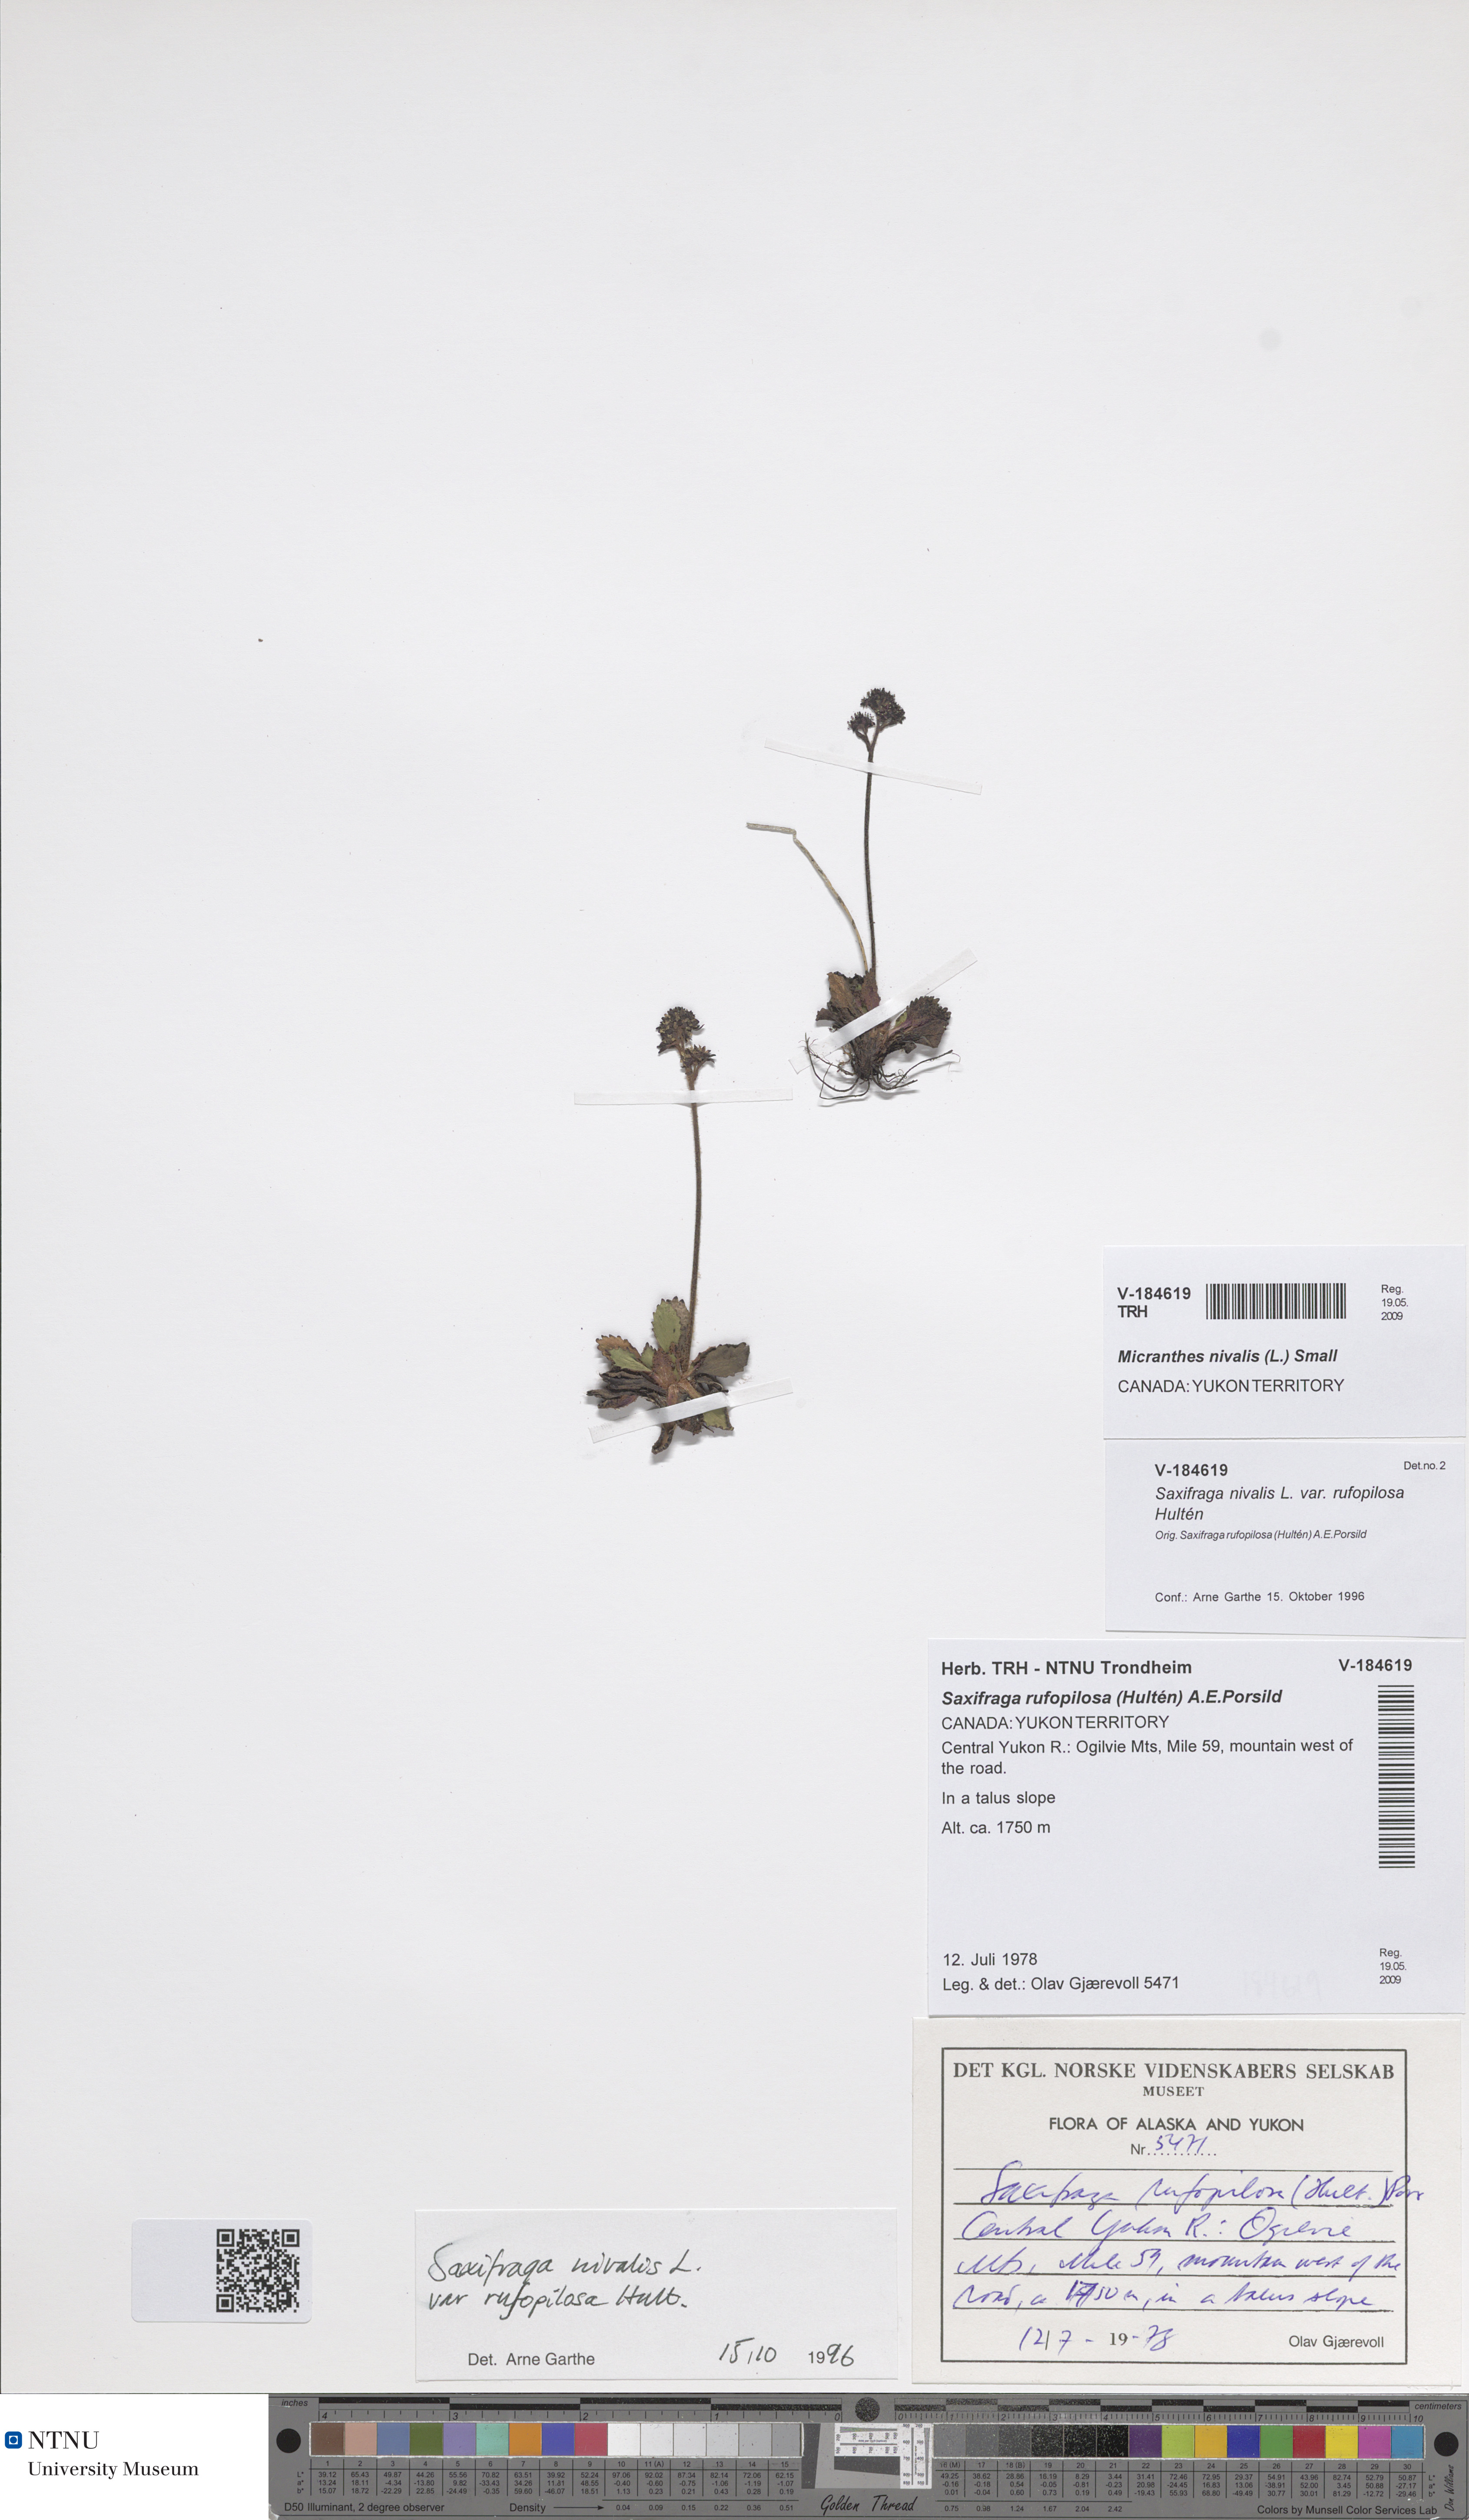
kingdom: Plantae
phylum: Tracheophyta
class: Magnoliopsida
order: Saxifragales
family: Saxifragaceae
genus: Micranthes
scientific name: Micranthes rufopilosa
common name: Red-haired saxifrage
